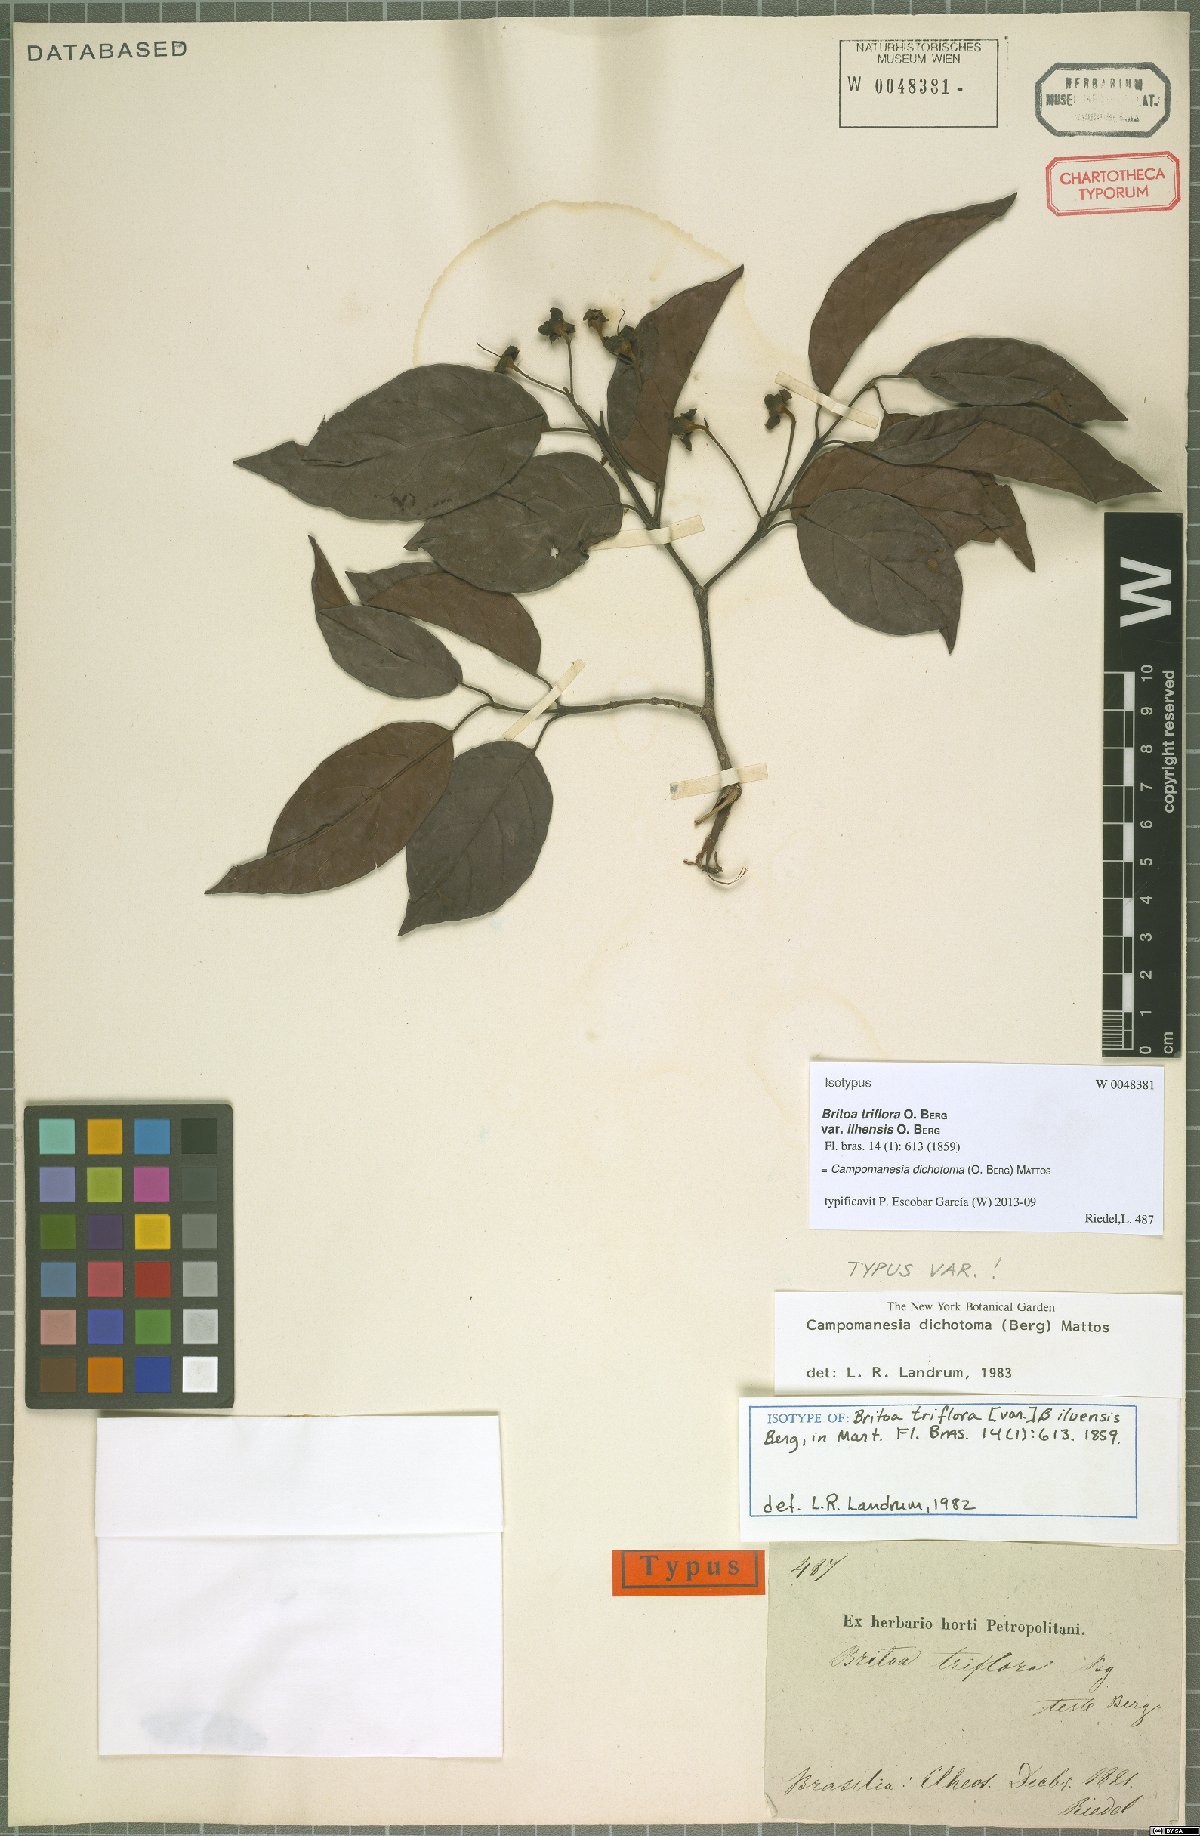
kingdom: Plantae
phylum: Tracheophyta
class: Magnoliopsida
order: Myrtales
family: Myrtaceae
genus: Campomanesia
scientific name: Campomanesia dichotoma
